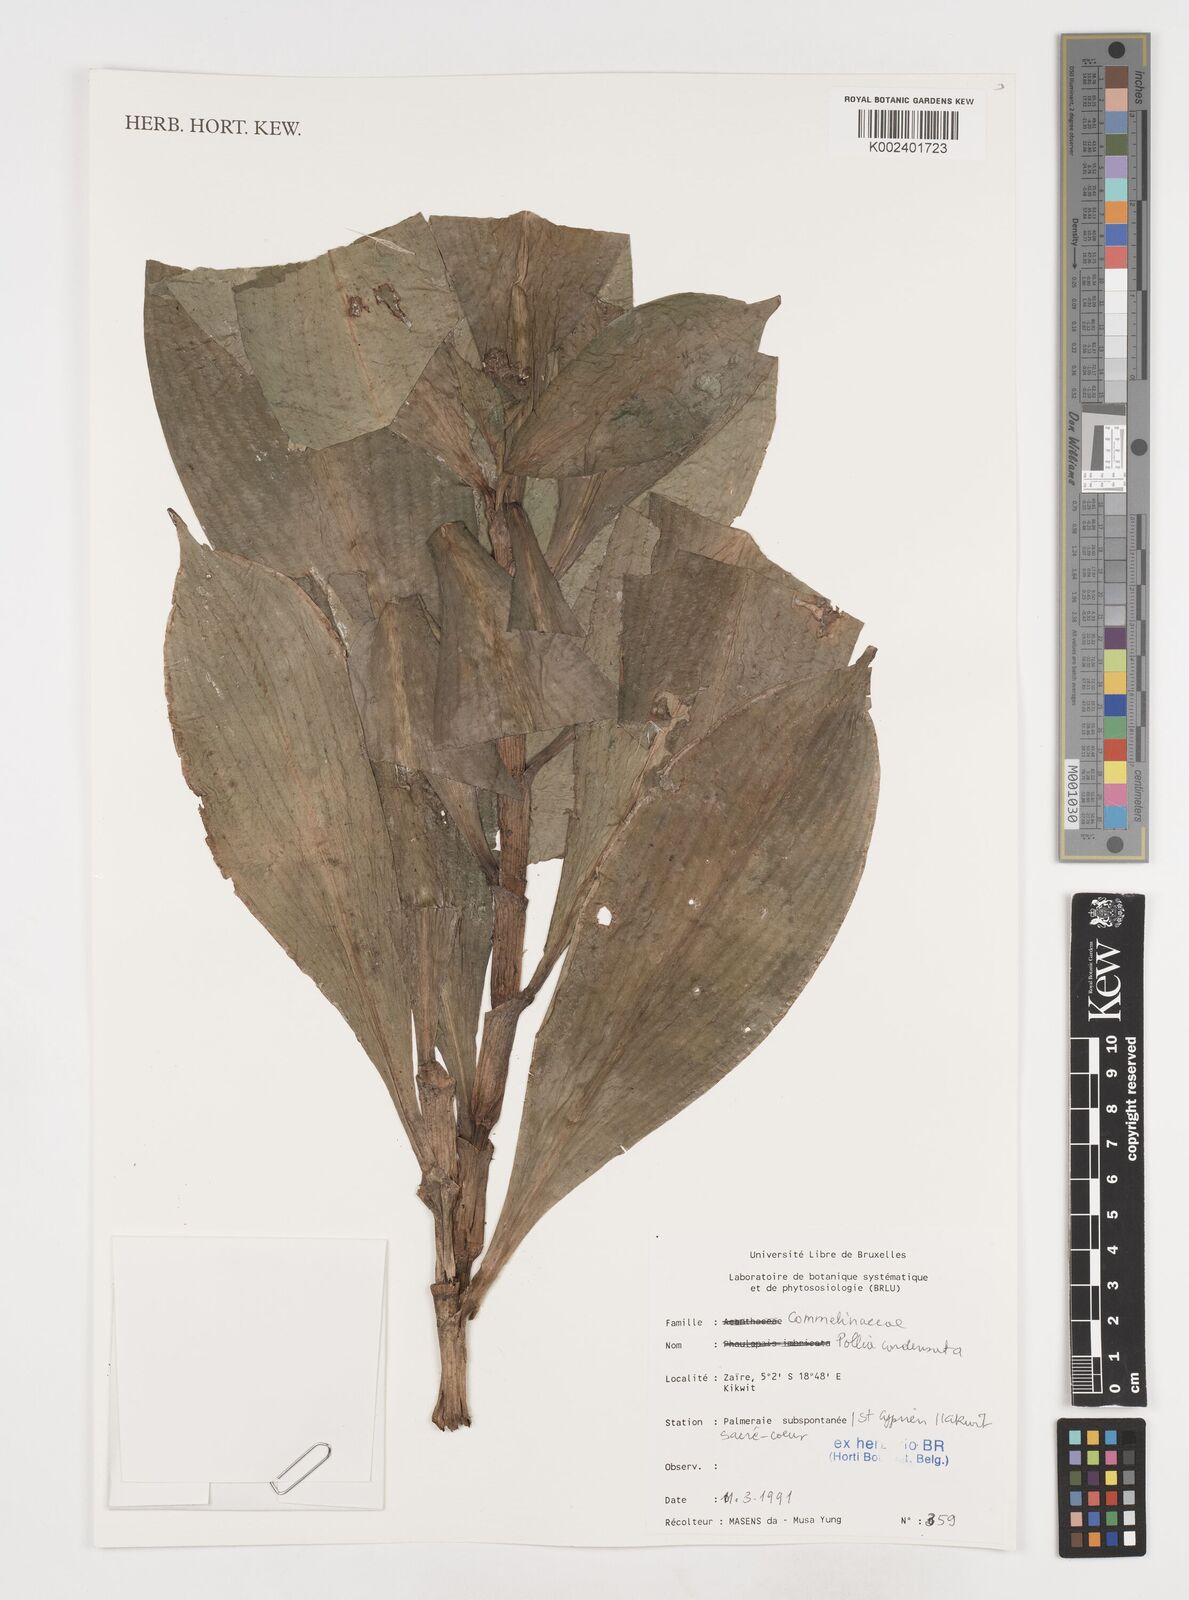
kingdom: Plantae
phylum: Tracheophyta
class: Liliopsida
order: Commelinales
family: Commelinaceae
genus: Pollia
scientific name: Pollia condensata
